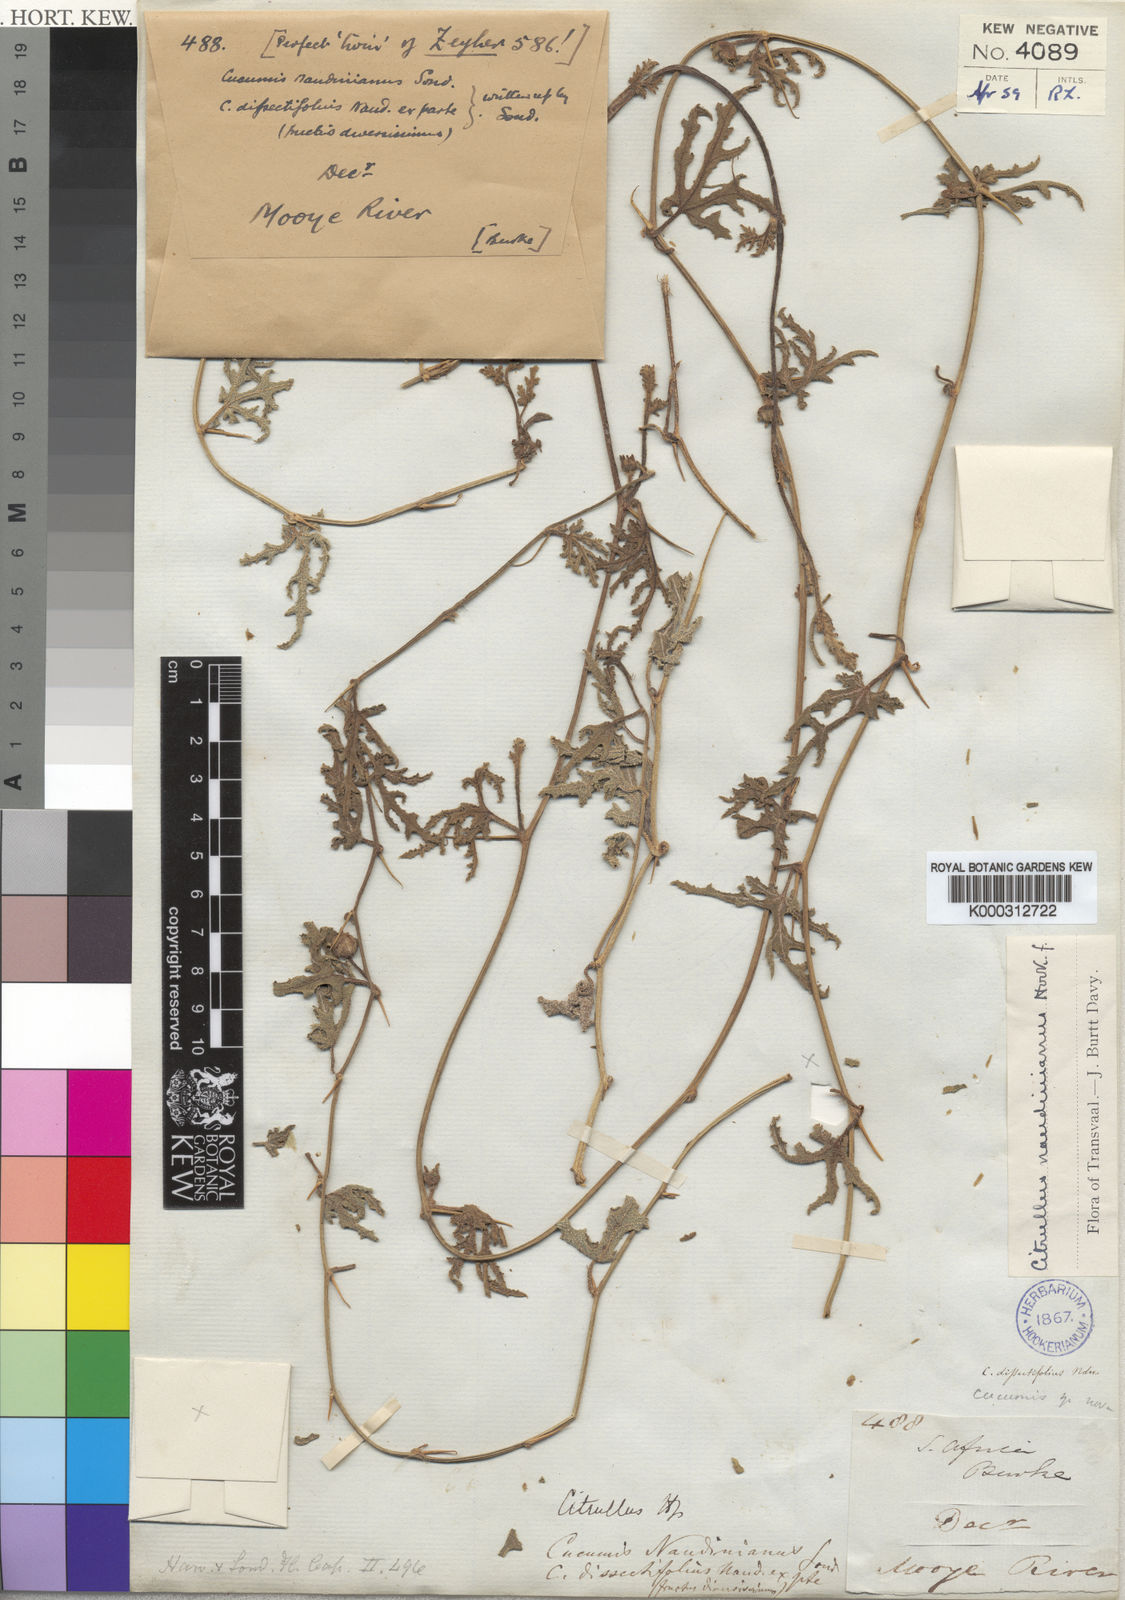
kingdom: Plantae
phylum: Tracheophyta
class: Magnoliopsida
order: Cucurbitales
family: Cucurbitaceae
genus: Citrullus
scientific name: Citrullus naudinianus
